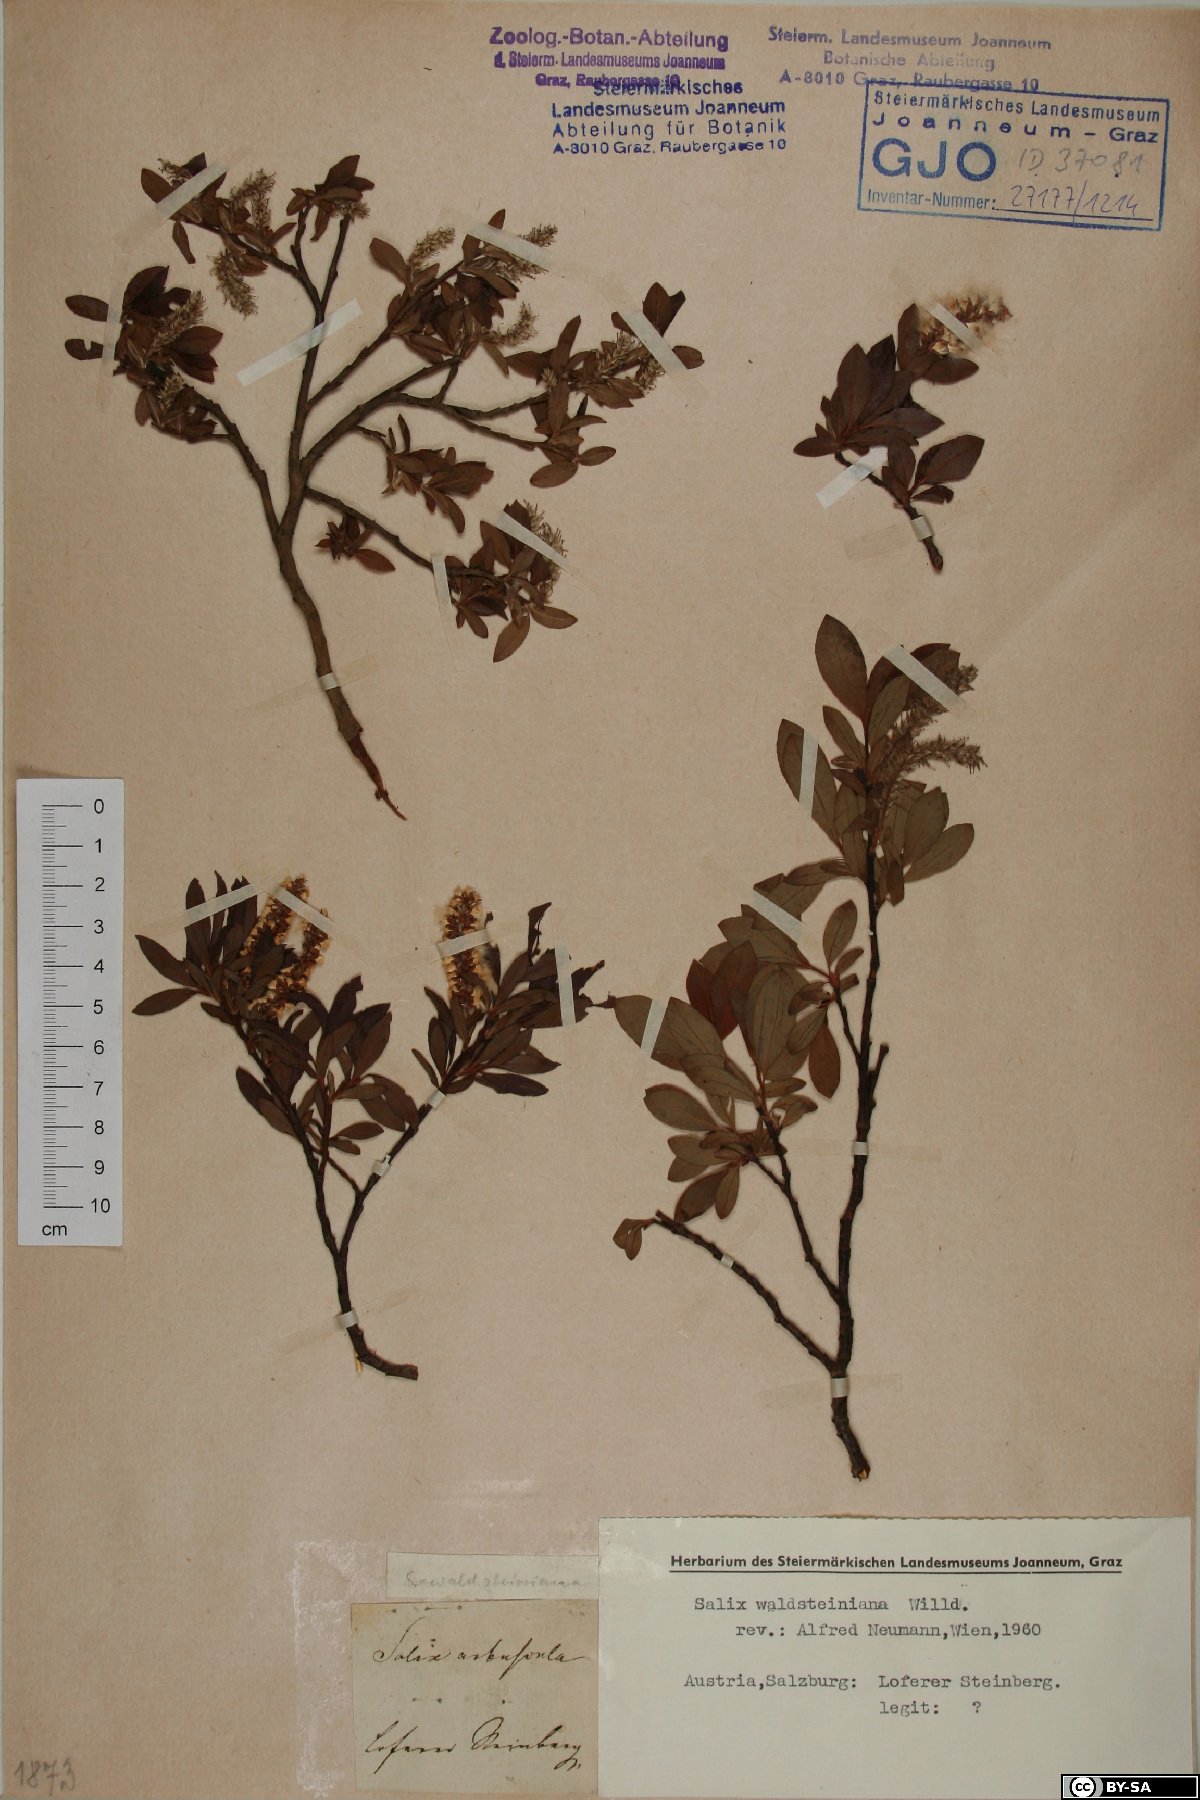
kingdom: Plantae
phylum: Tracheophyta
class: Magnoliopsida
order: Malpighiales
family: Salicaceae
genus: Salix
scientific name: Salix waldsteiniana
